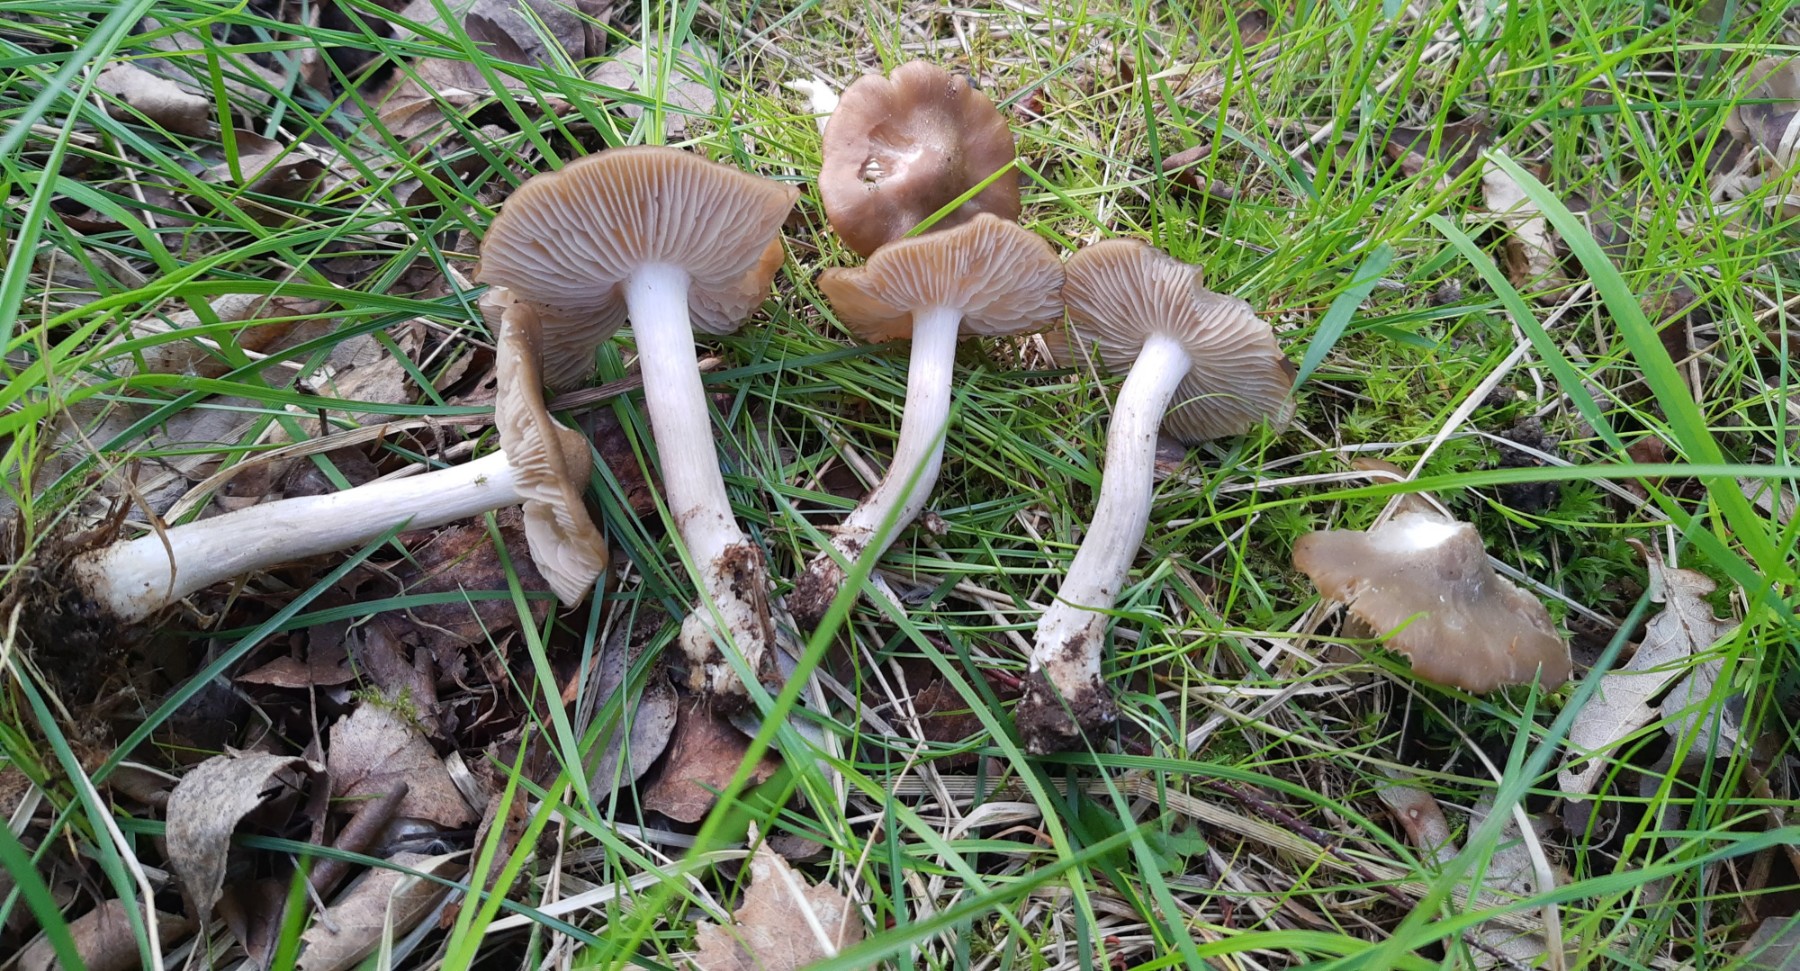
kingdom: Fungi
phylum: Basidiomycota
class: Agaricomycetes
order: Agaricales
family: Entolomataceae
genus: Entoloma
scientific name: Entoloma clypeatum
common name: flammet rødblad
